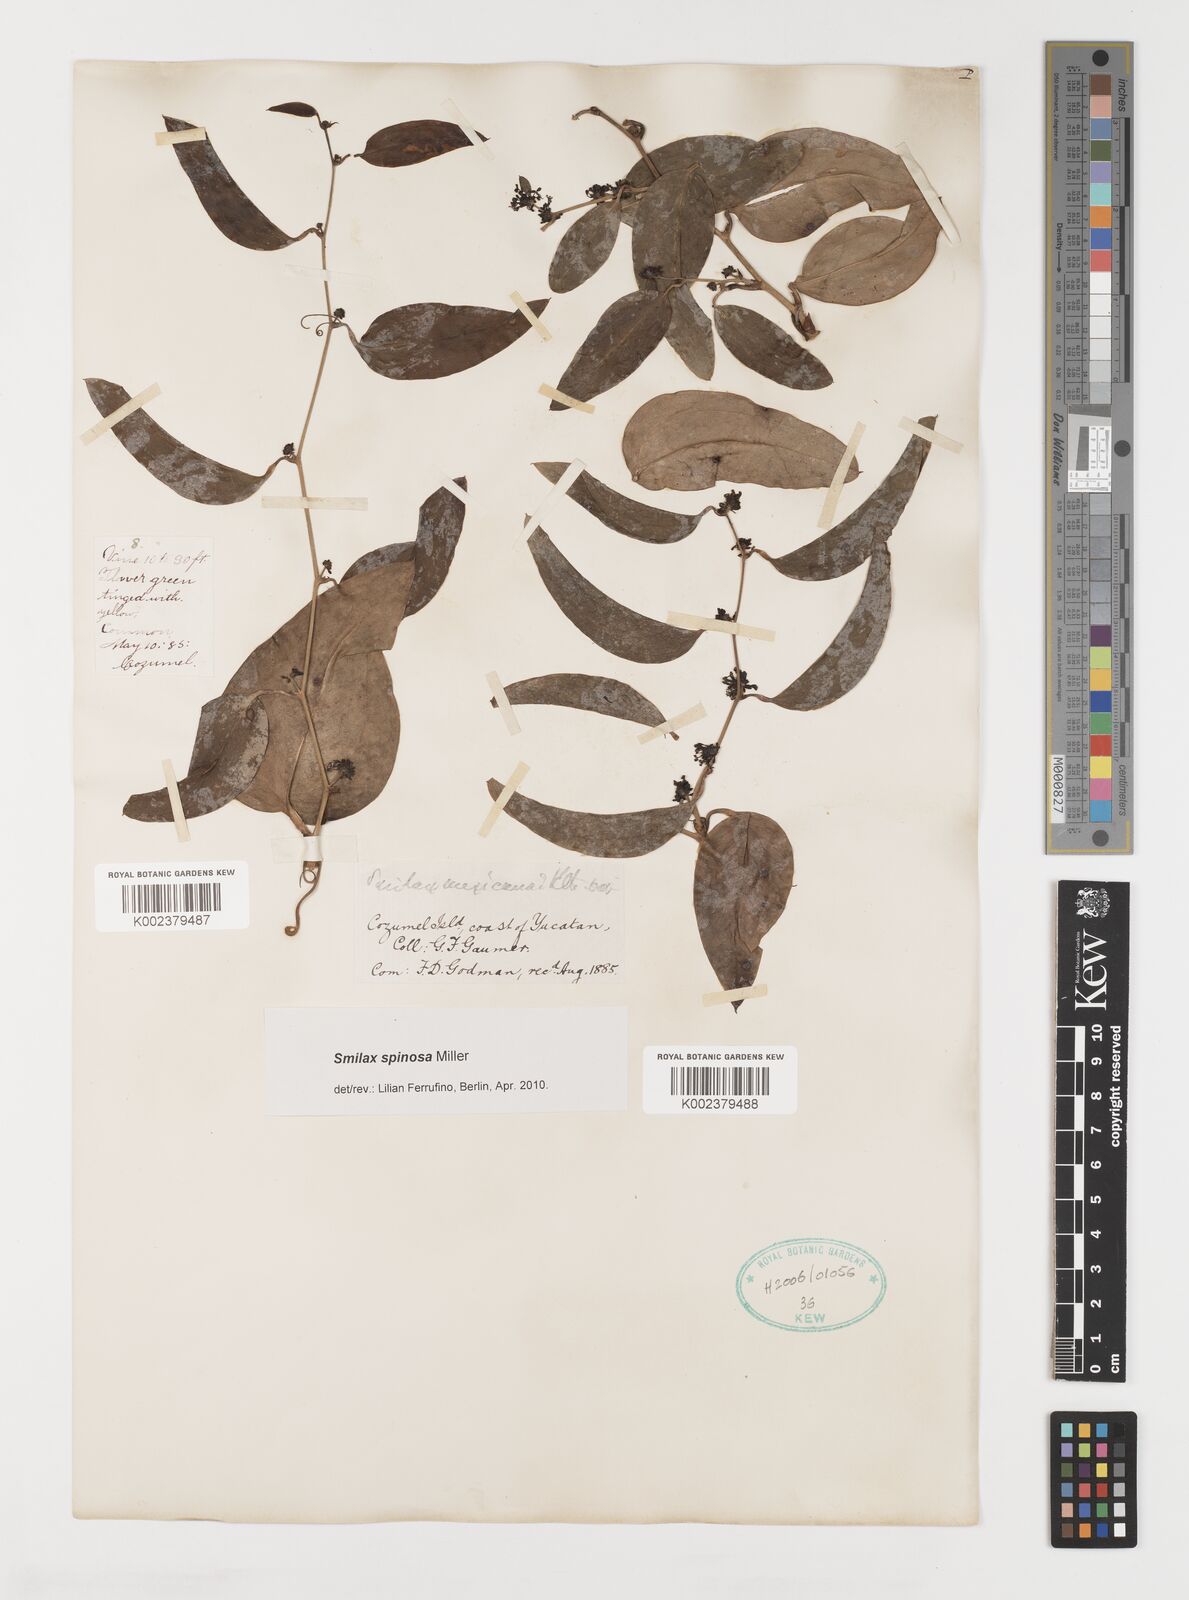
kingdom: Plantae
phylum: Tracheophyta
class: Liliopsida
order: Liliales
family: Smilacaceae
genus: Smilax
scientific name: Smilax spinosa
